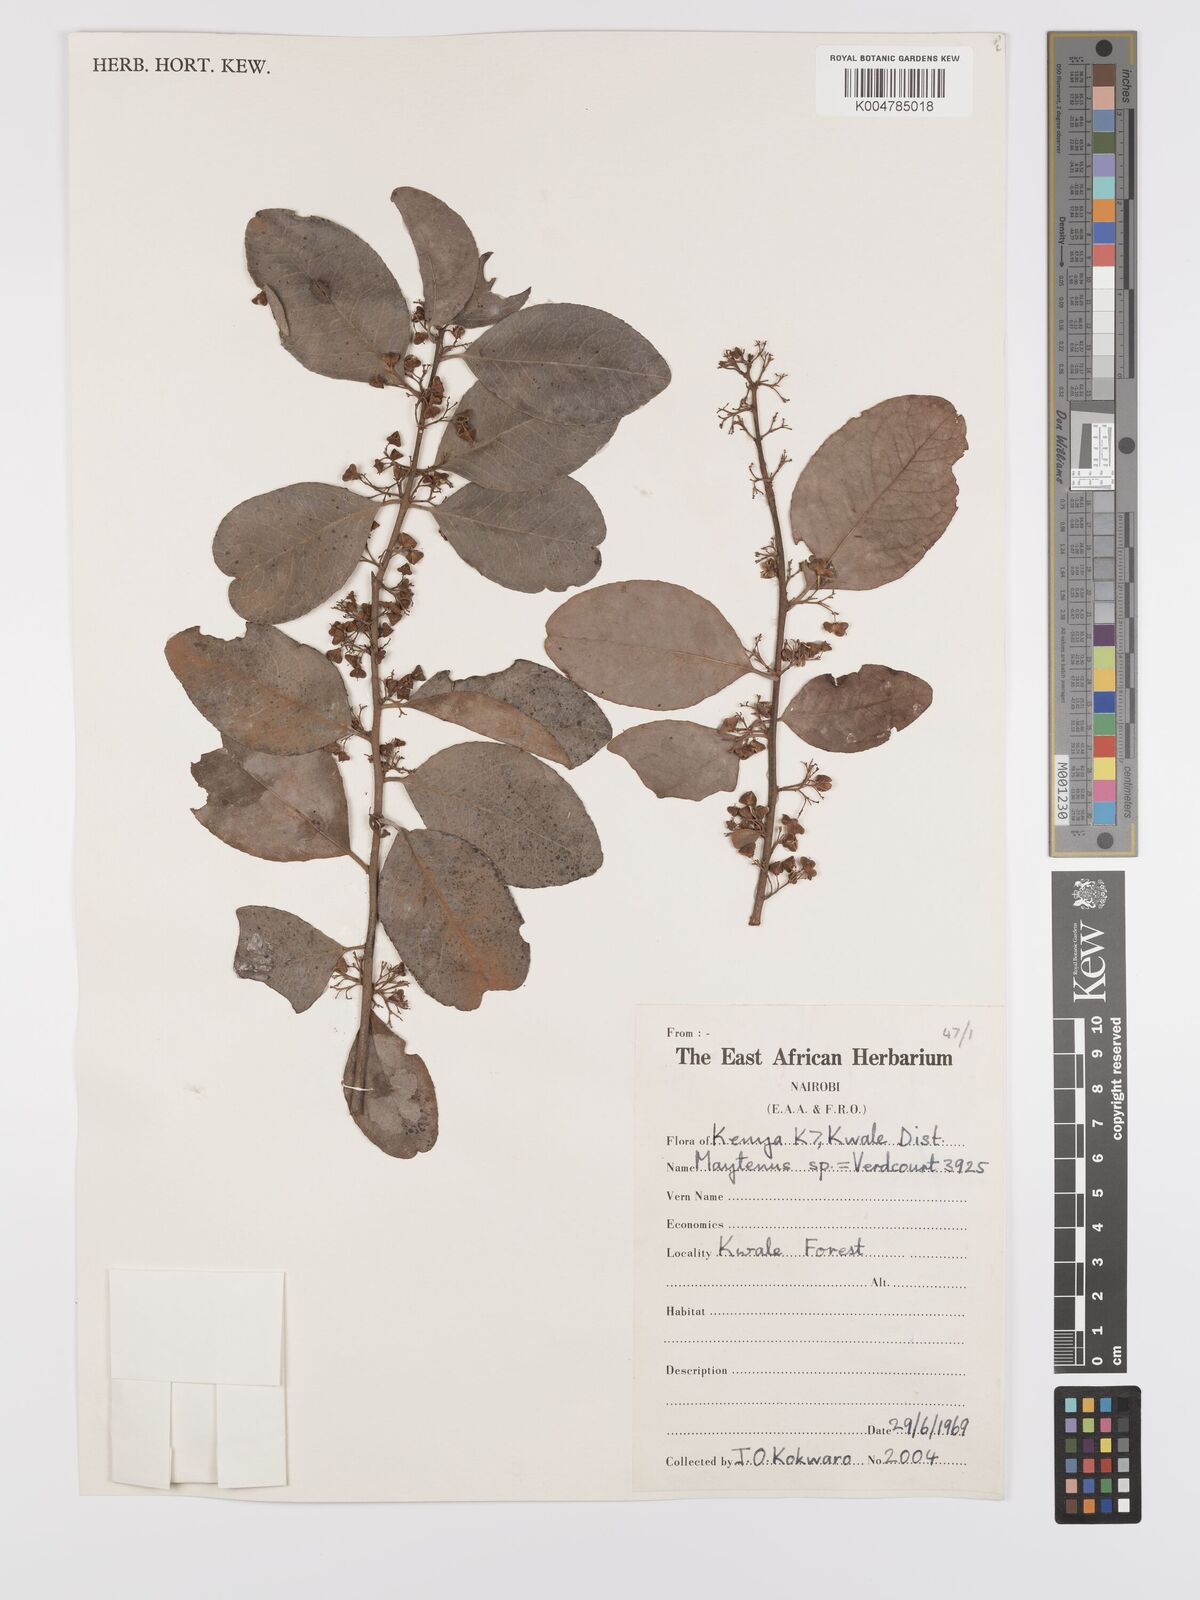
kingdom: Plantae
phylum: Tracheophyta
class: Magnoliopsida
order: Celastrales
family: Celastraceae
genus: Gymnosporia
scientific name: Gymnosporia buchananii
